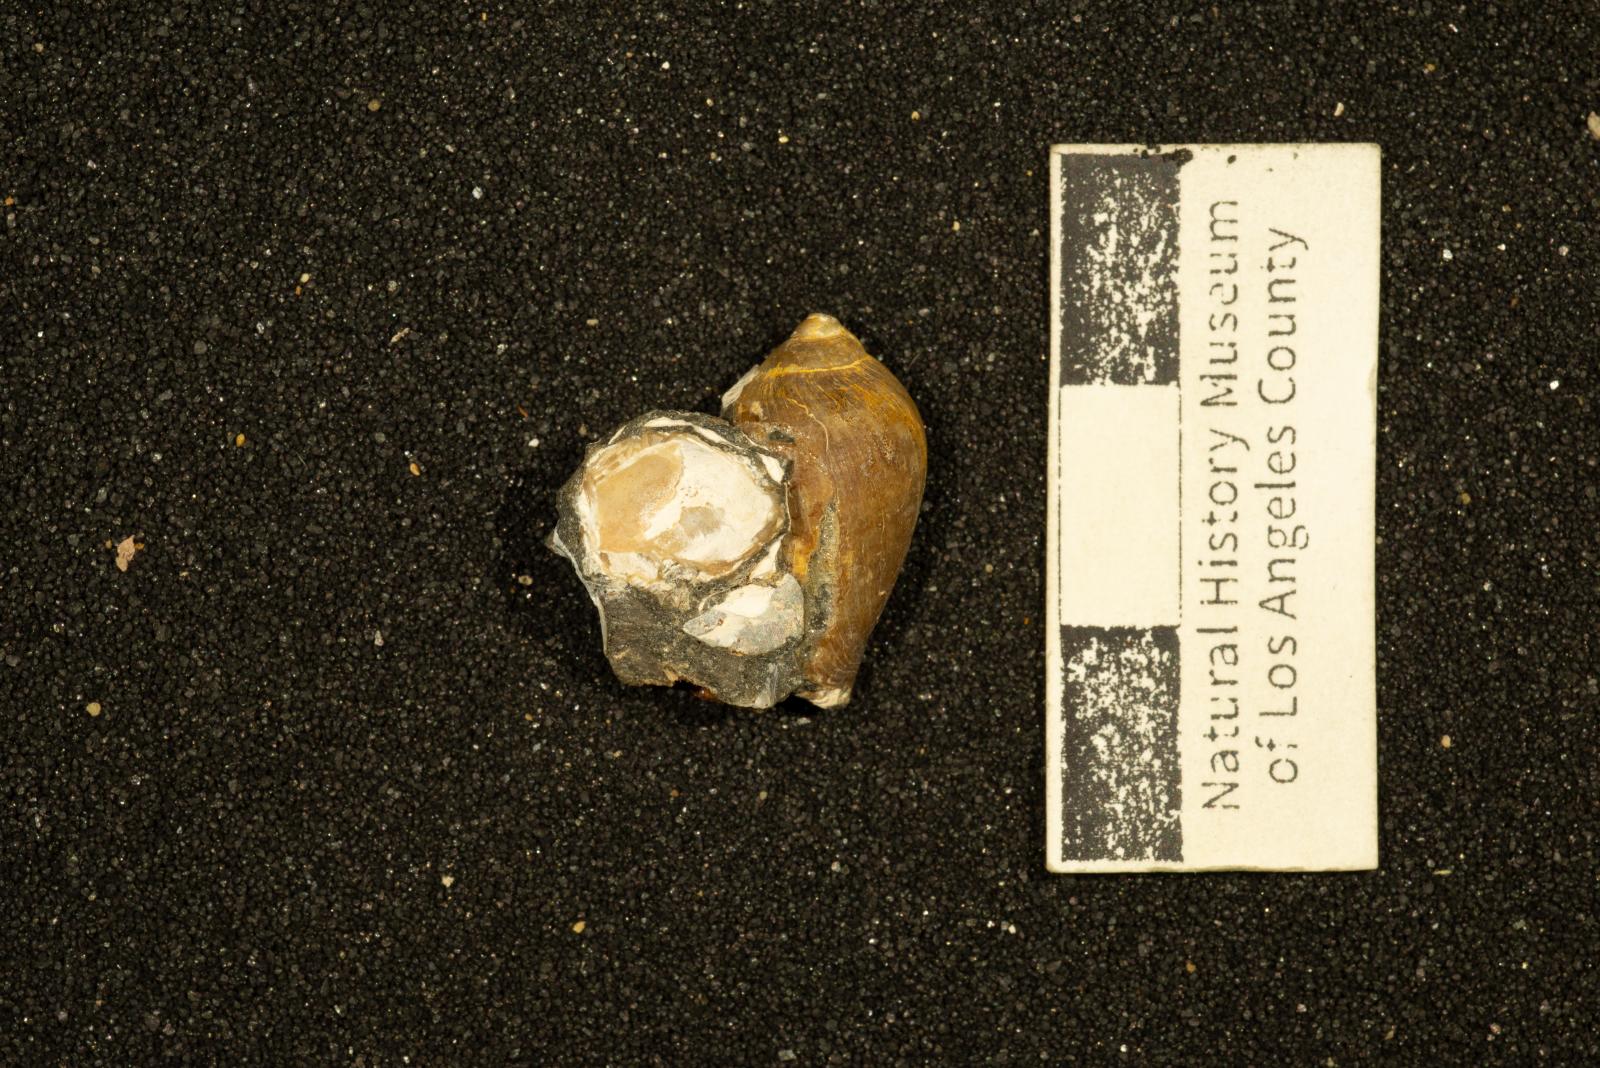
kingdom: Animalia
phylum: Mollusca
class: Gastropoda
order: Neogastropoda
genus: Sycodes
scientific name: Sycodes Pyrula glabra
